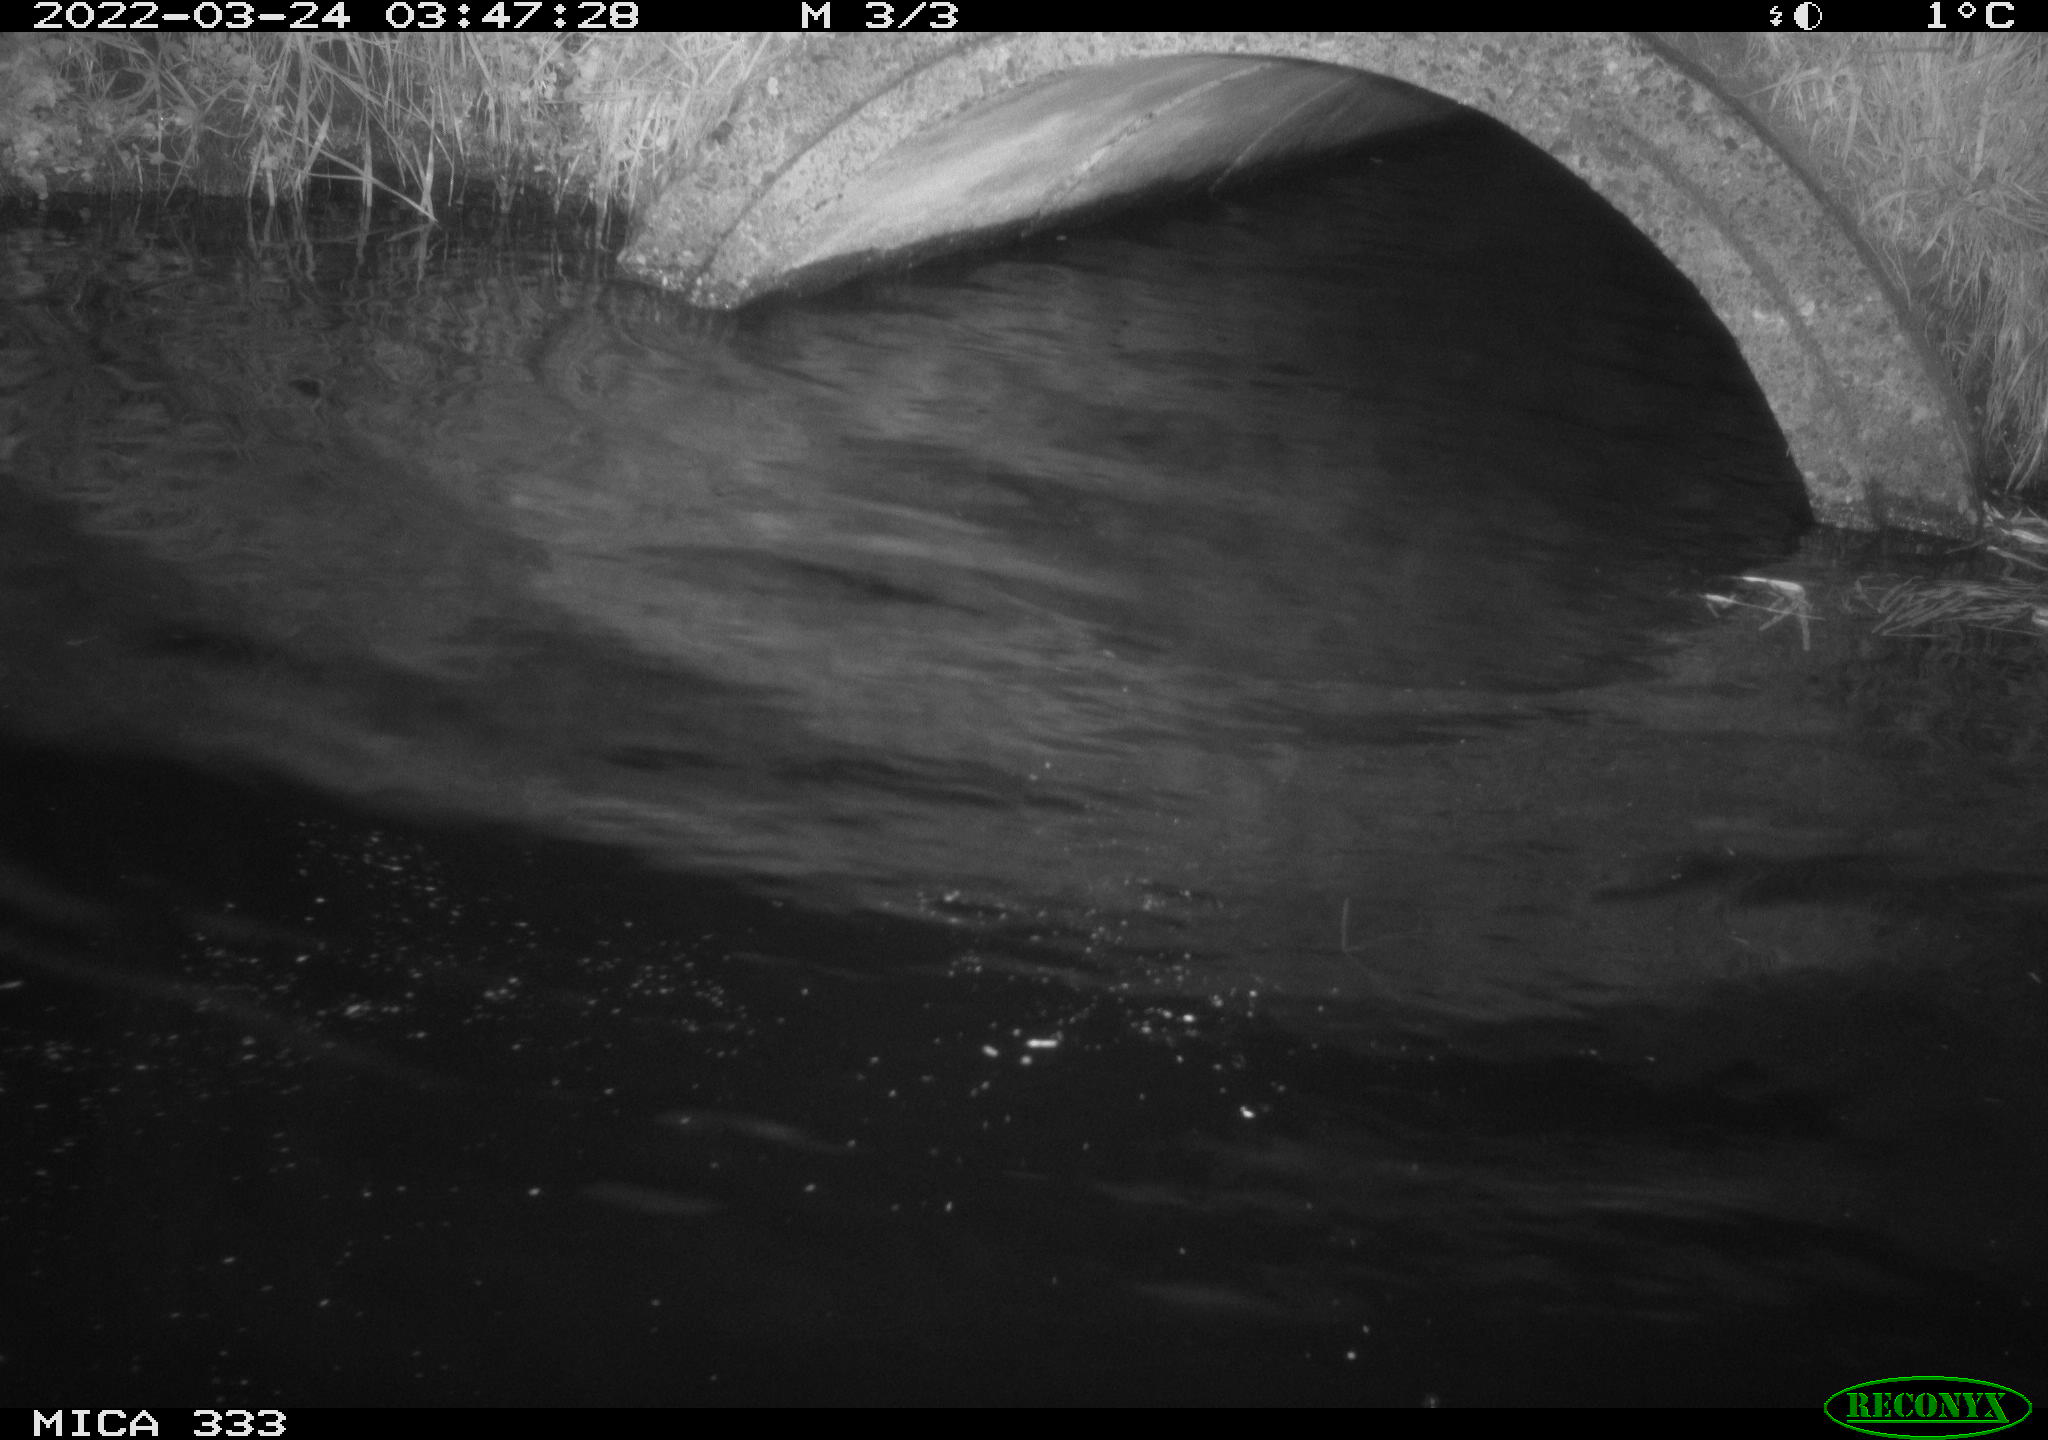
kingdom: Animalia
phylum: Chordata
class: Aves
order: Anseriformes
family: Anatidae
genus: Anas
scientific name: Anas platyrhynchos
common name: Mallard
